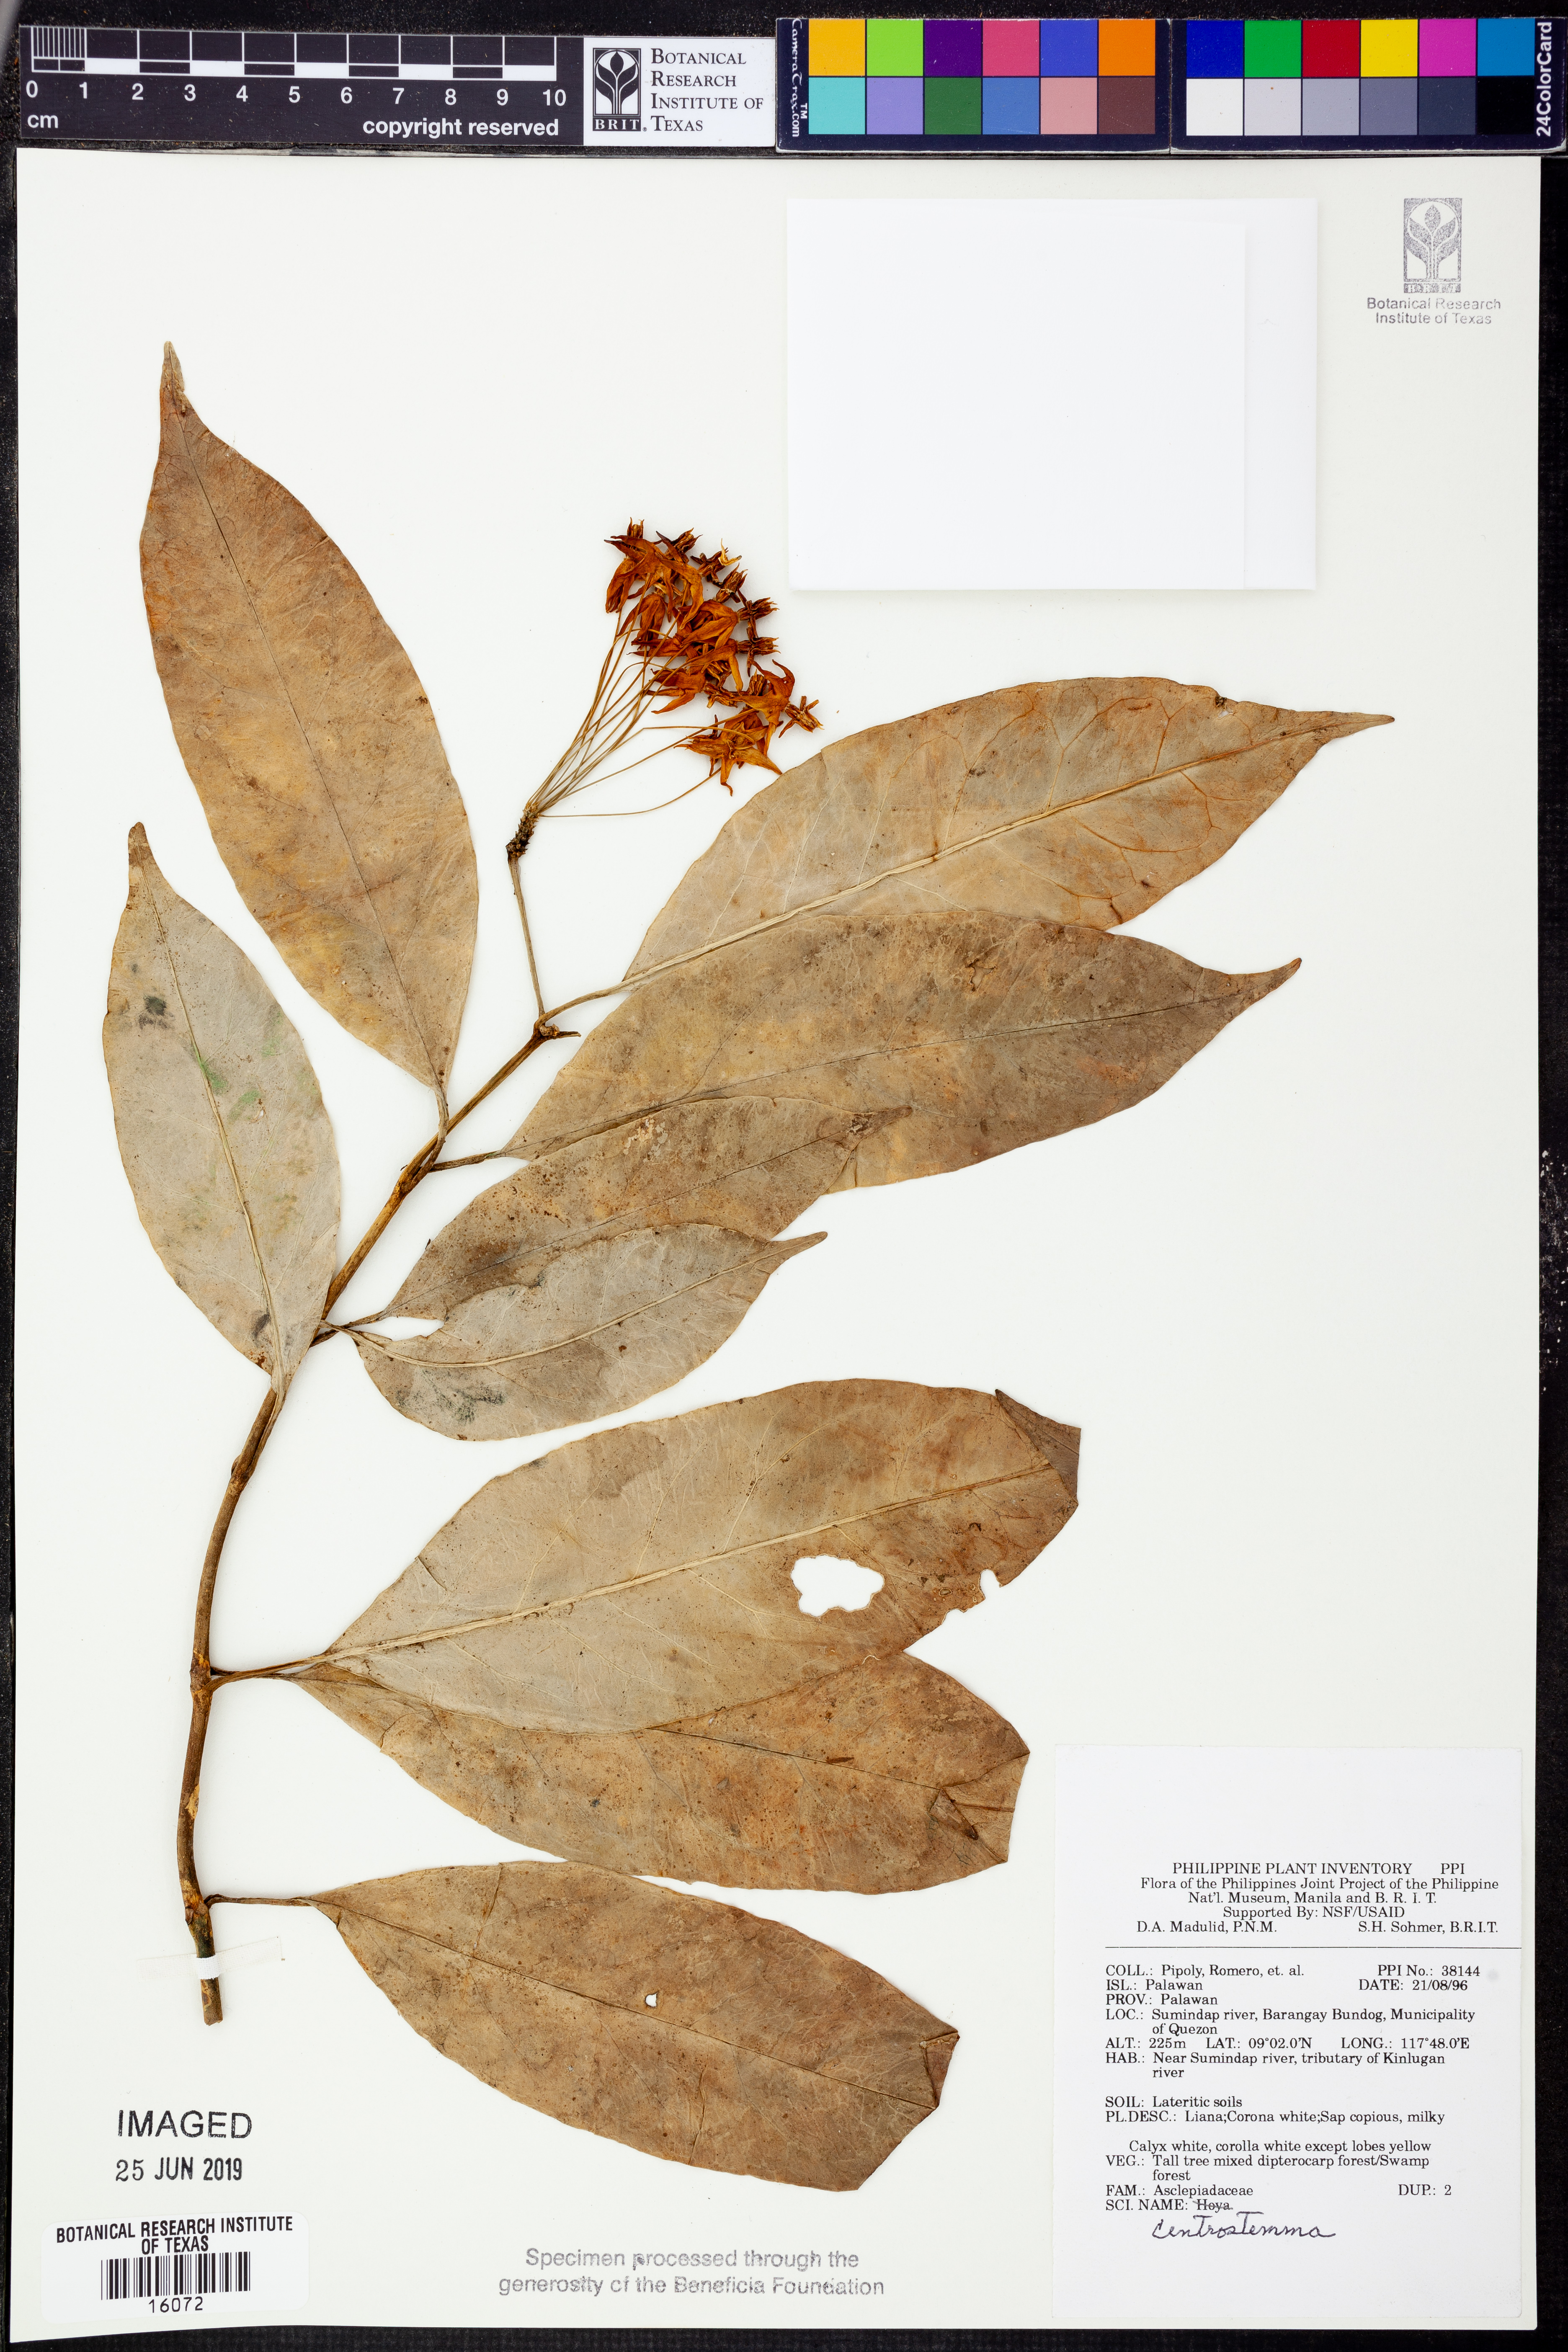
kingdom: Plantae
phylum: Tracheophyta
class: Magnoliopsida
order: Gentianales
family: Apocynaceae
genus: Hoya
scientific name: Hoya
